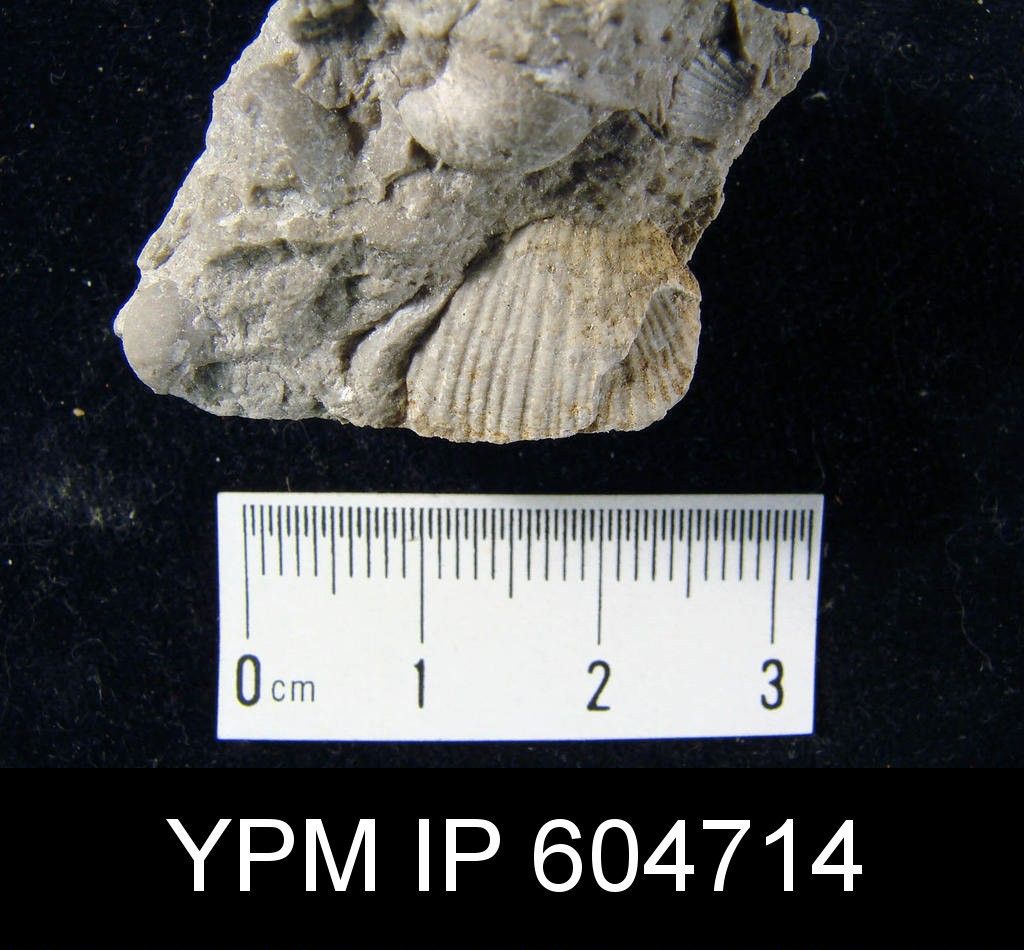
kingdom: Animalia
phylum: Brachiopoda
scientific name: Brachiopoda
